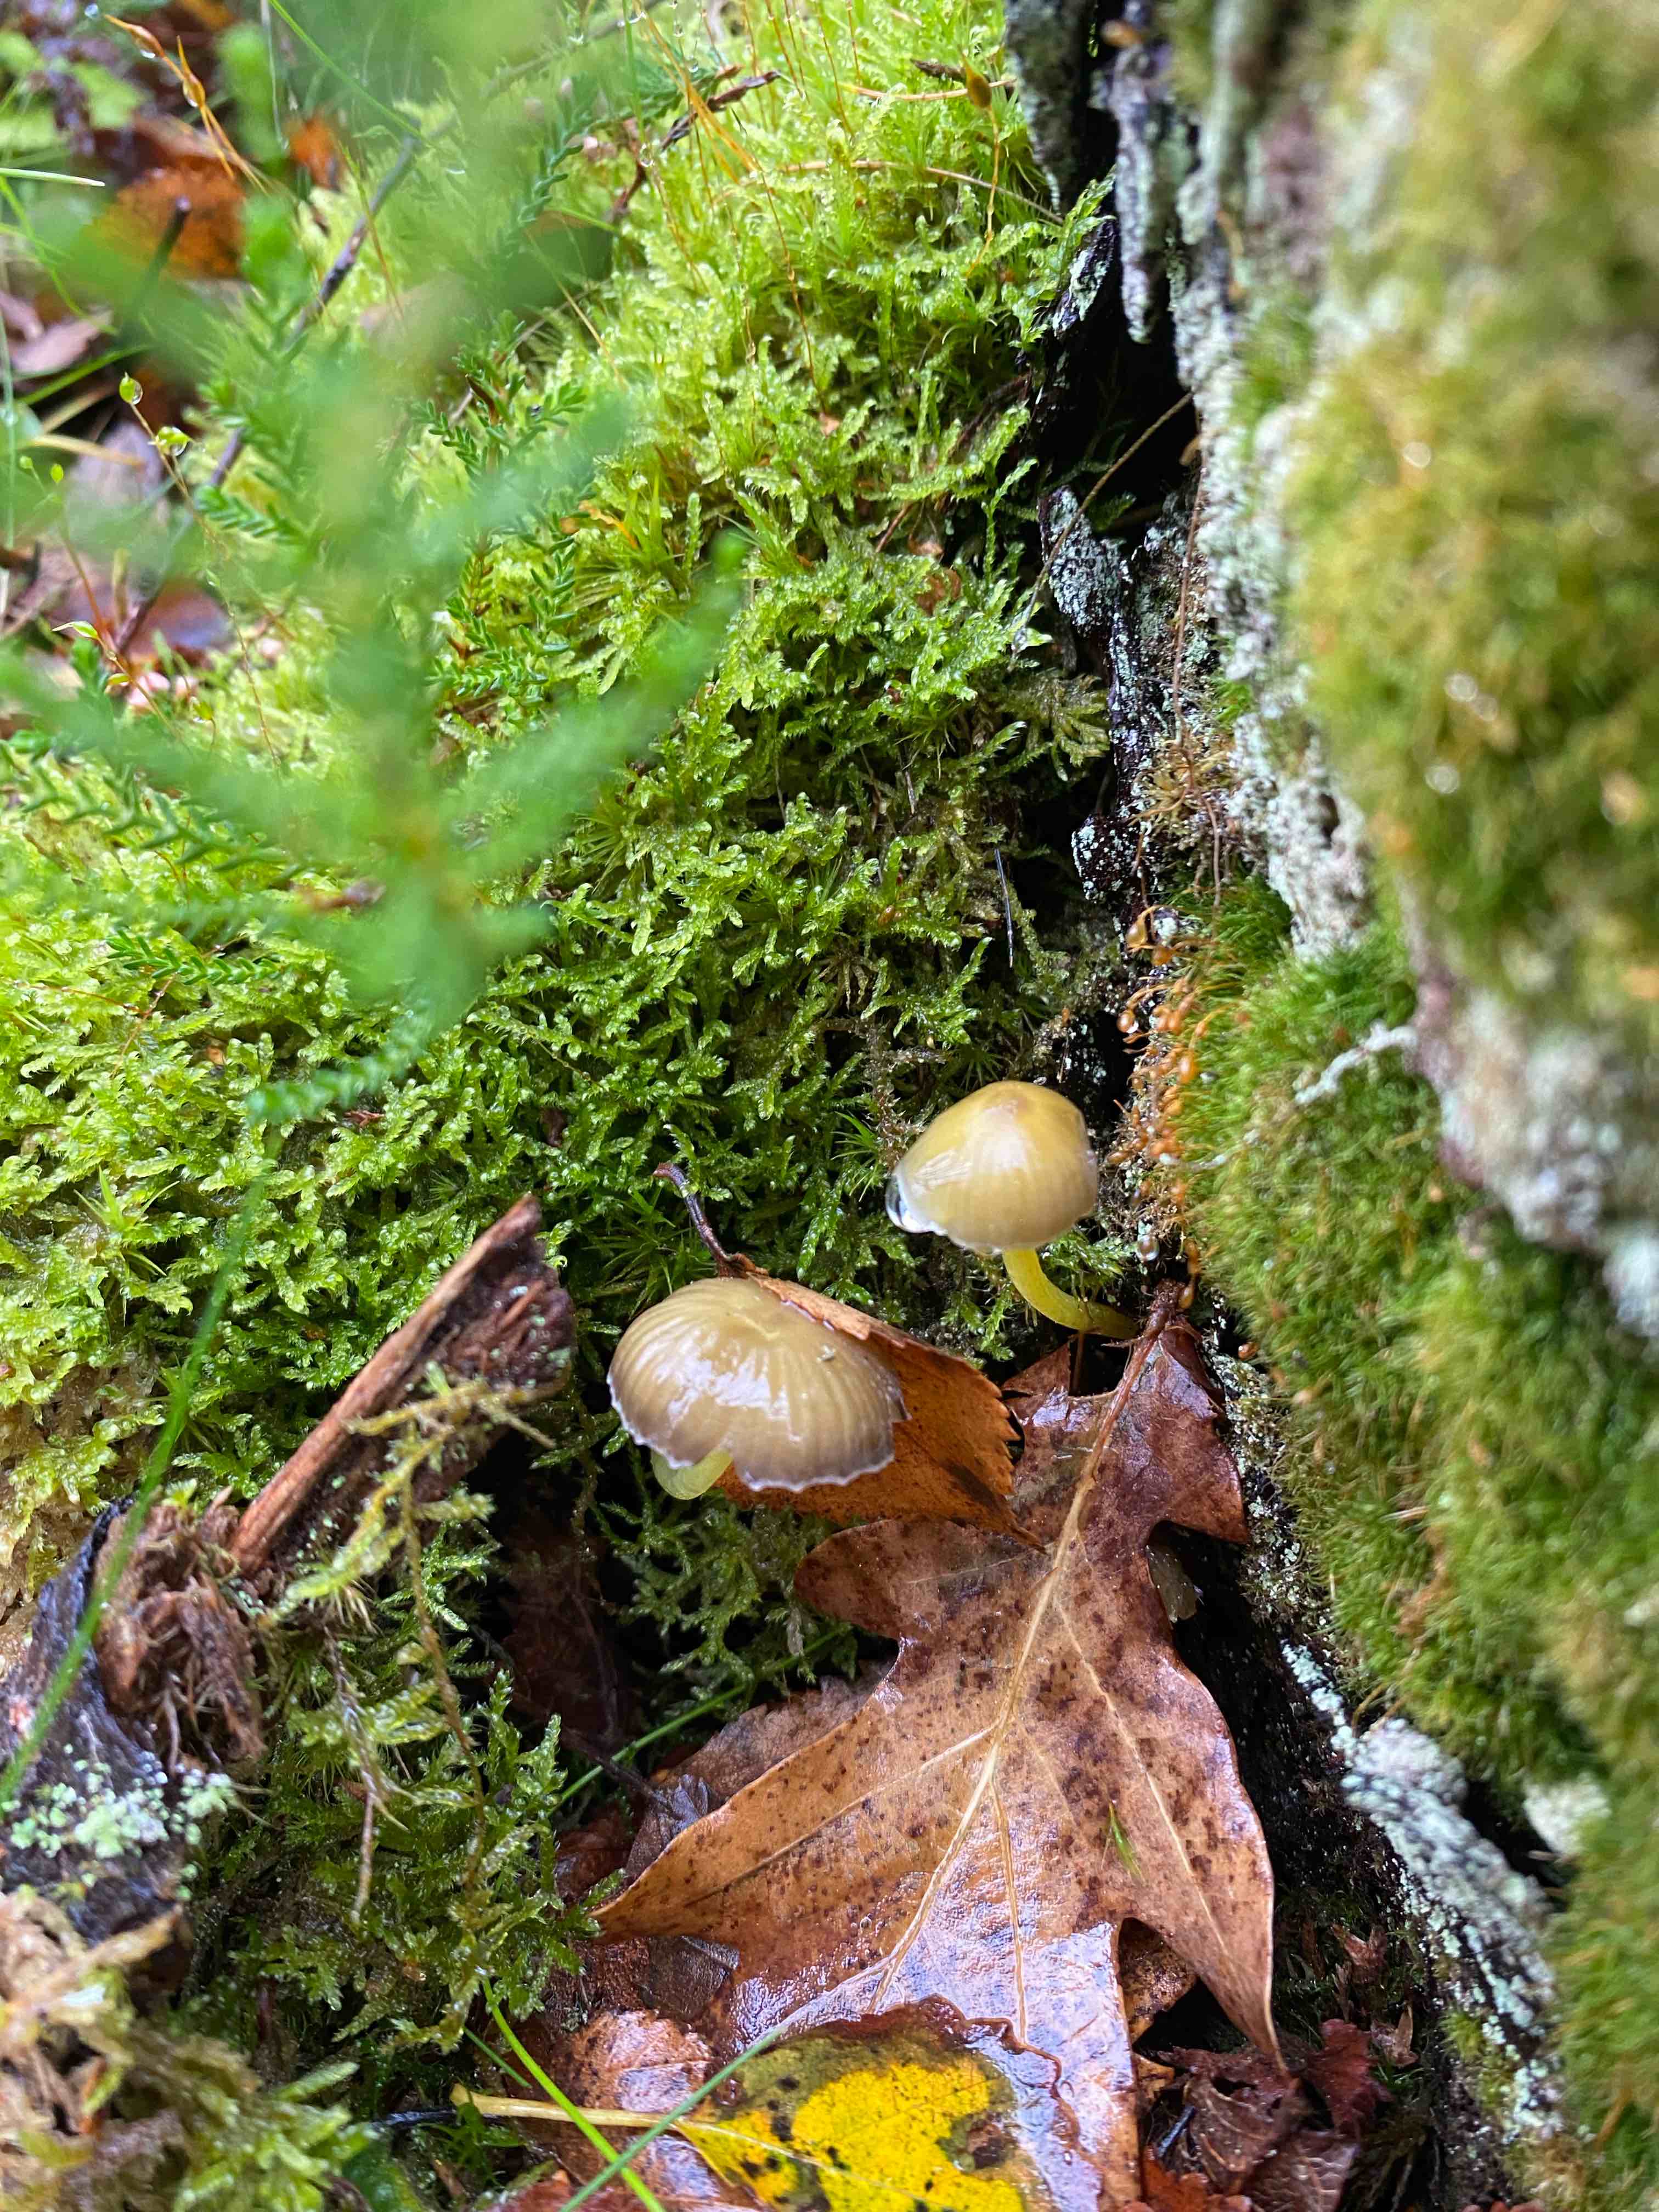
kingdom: Fungi
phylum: Basidiomycota
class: Agaricomycetes
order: Agaricales
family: Mycenaceae
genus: Mycena
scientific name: Mycena epipterygia
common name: gulstokket huesvamp
